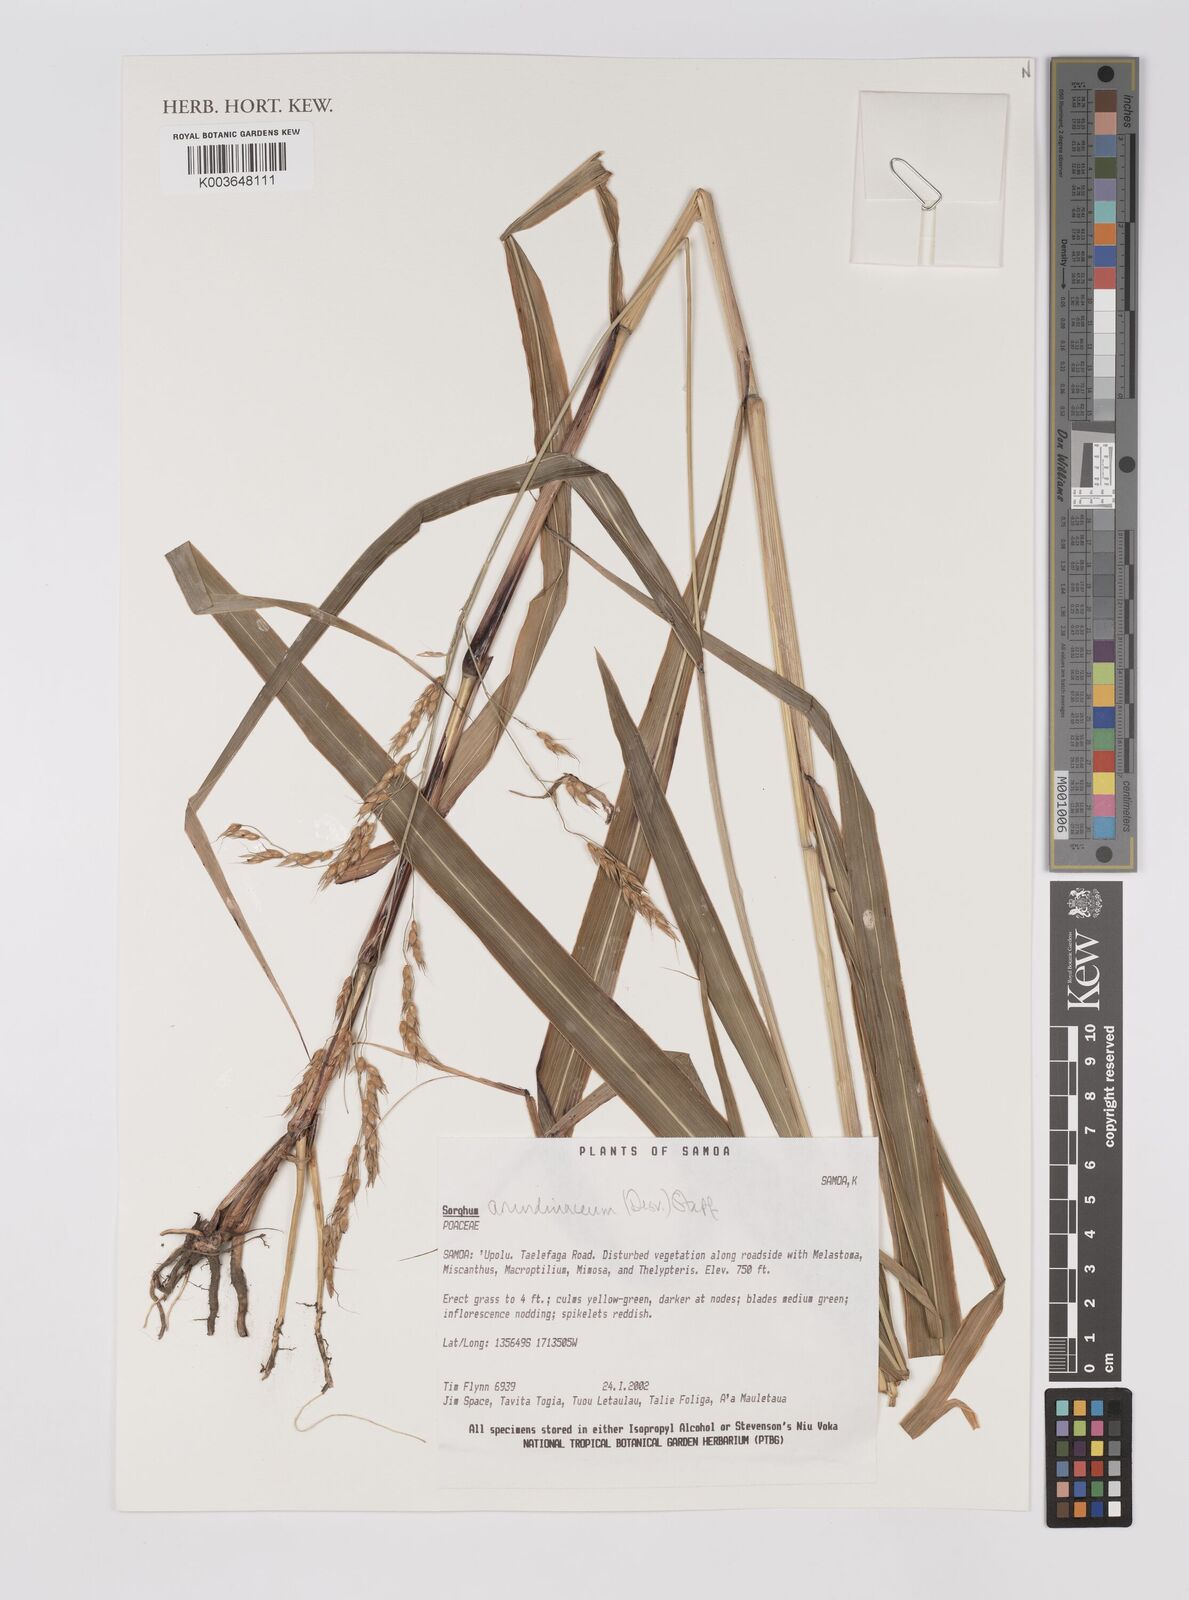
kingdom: Plantae
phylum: Tracheophyta
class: Liliopsida
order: Poales
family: Poaceae
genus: Sorghum
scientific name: Sorghum arundinaceum
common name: Sorghum
